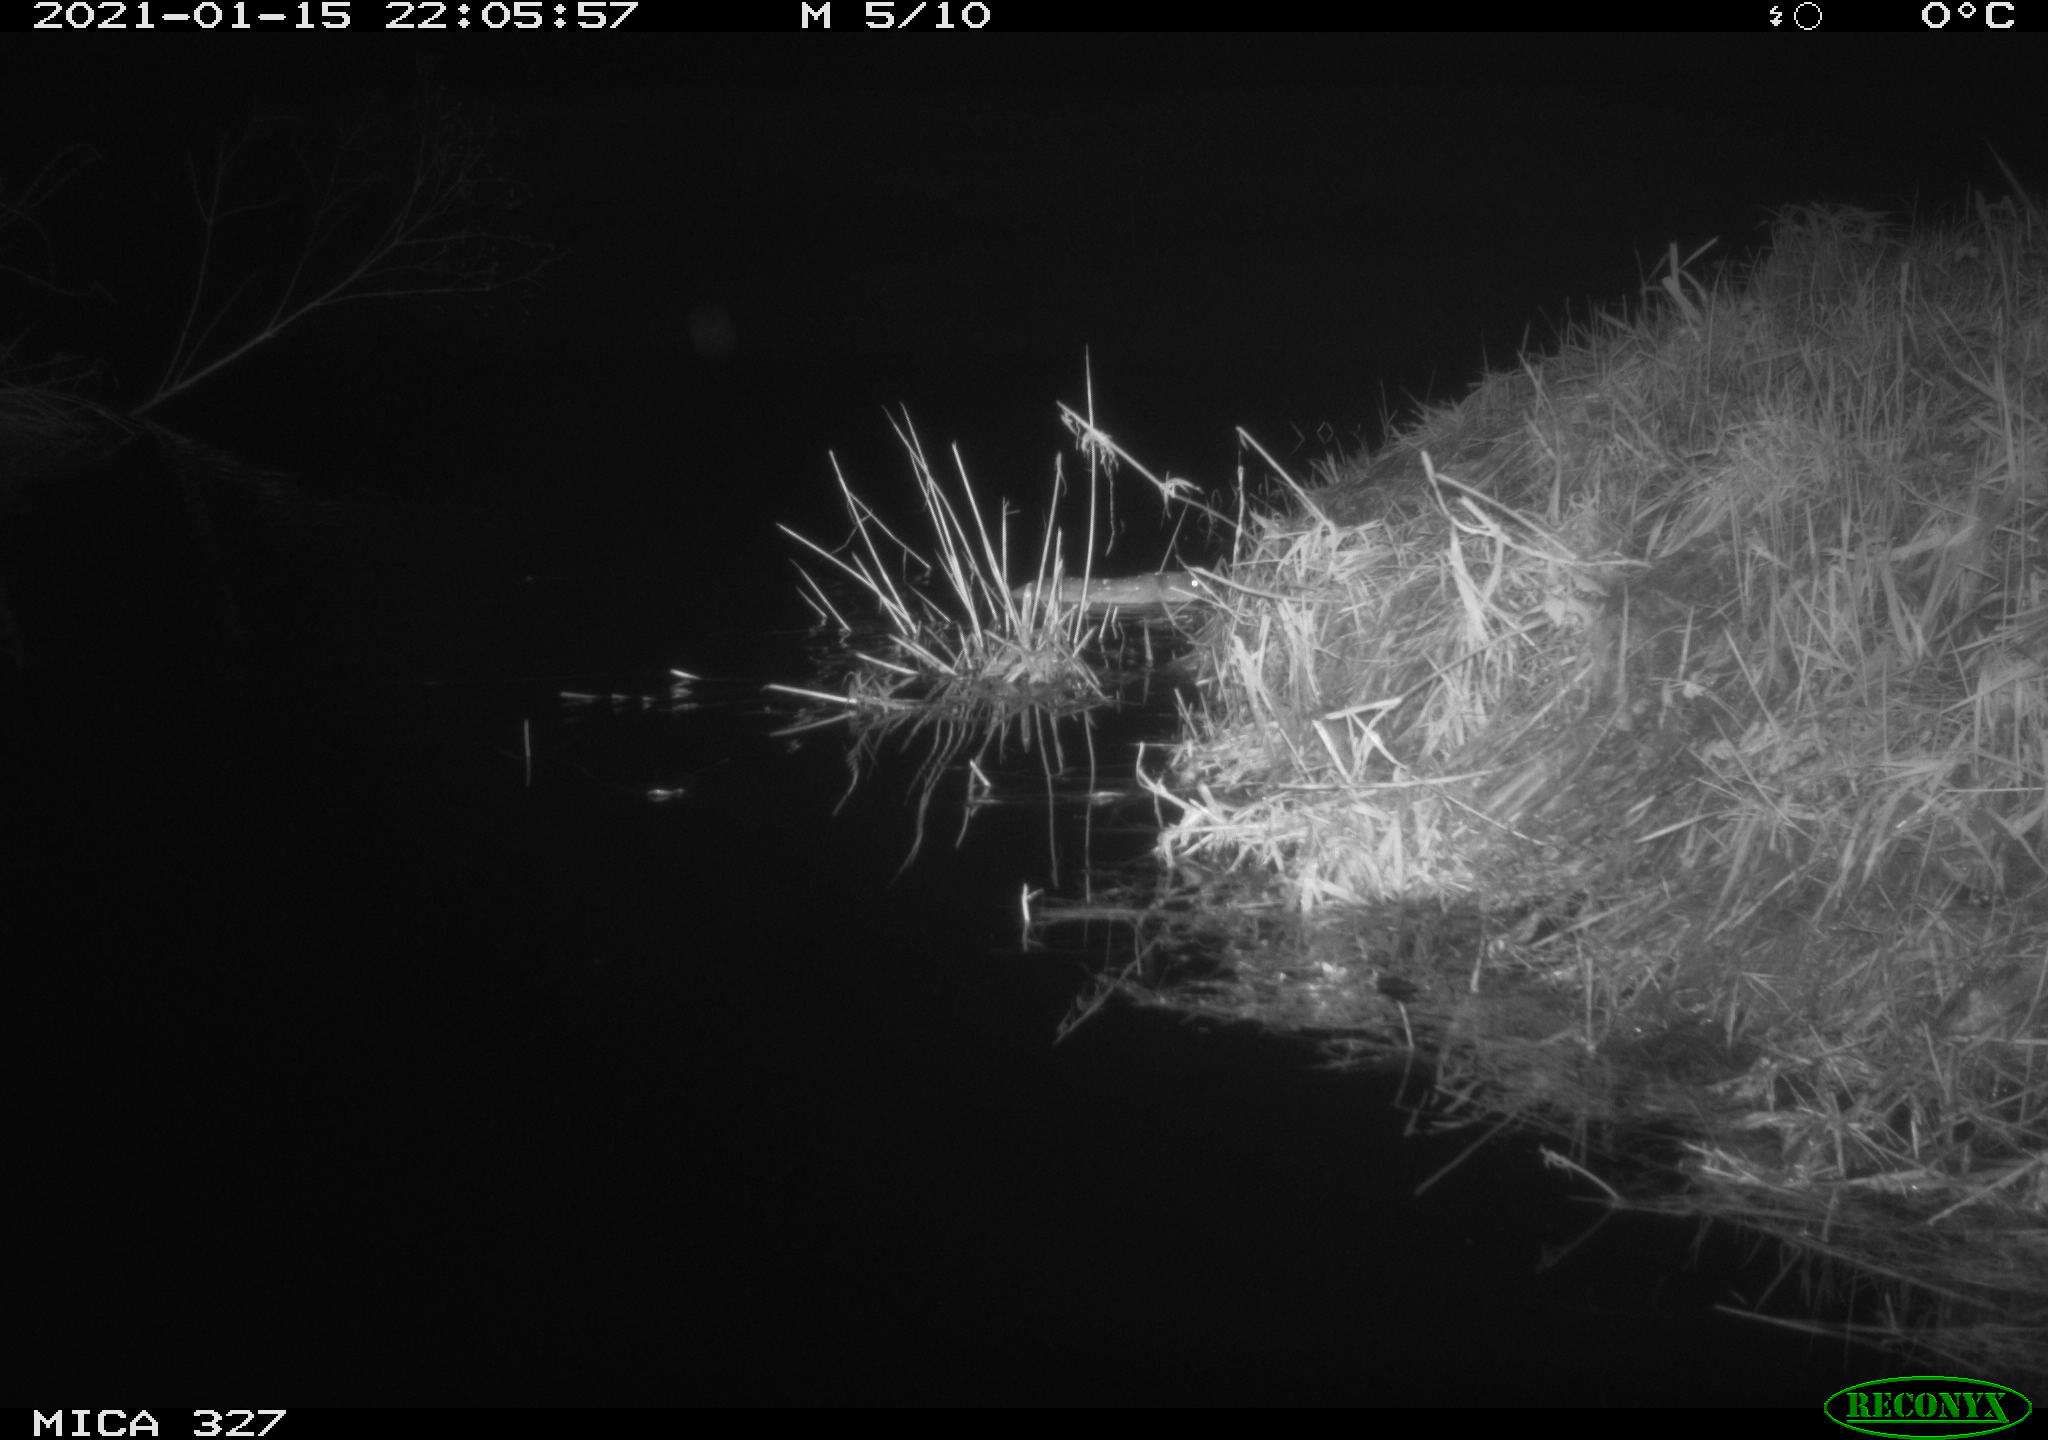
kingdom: Animalia
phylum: Chordata
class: Mammalia
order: Rodentia
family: Cricetidae
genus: Ondatra
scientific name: Ondatra zibethicus
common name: Muskrat
